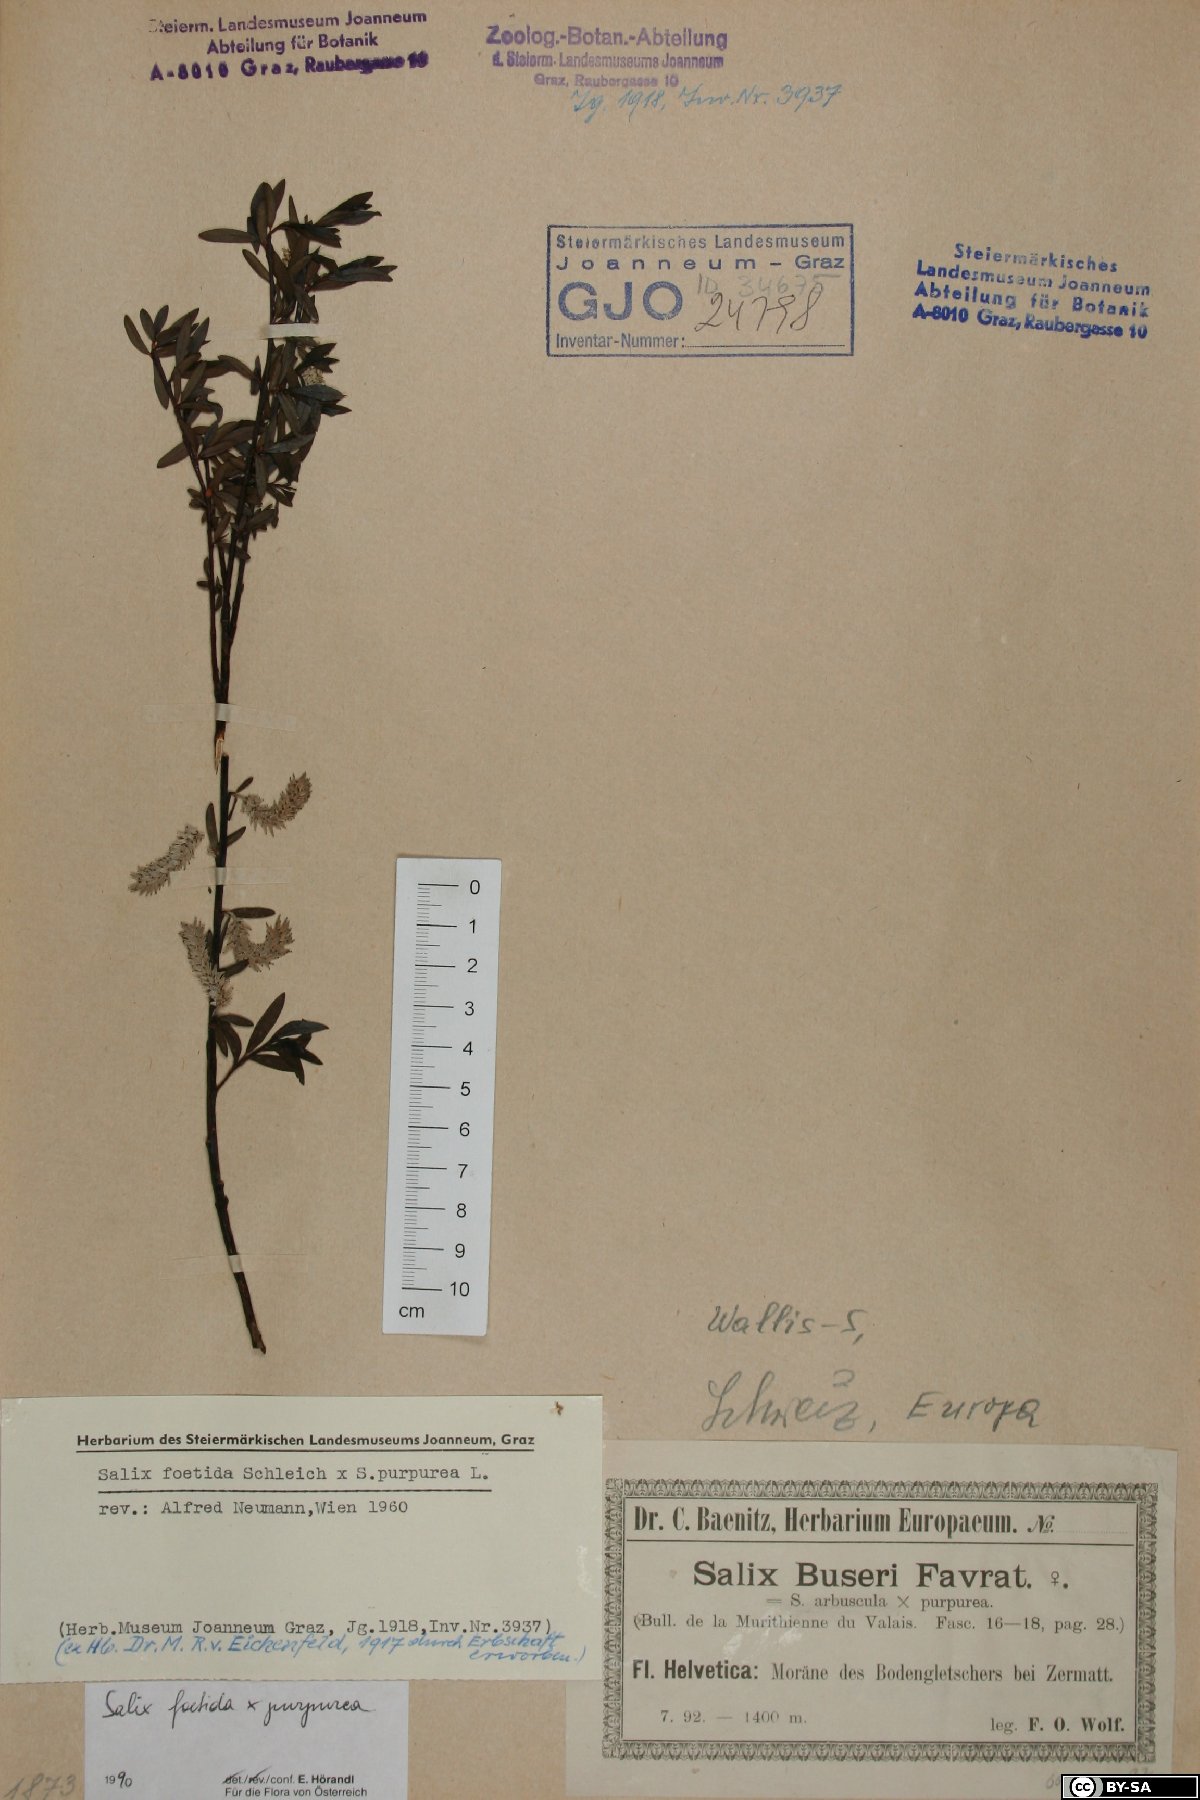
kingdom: Plantae
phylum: Tracheophyta
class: Magnoliopsida
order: Malpighiales
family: Salicaceae
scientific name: Salicaceae
